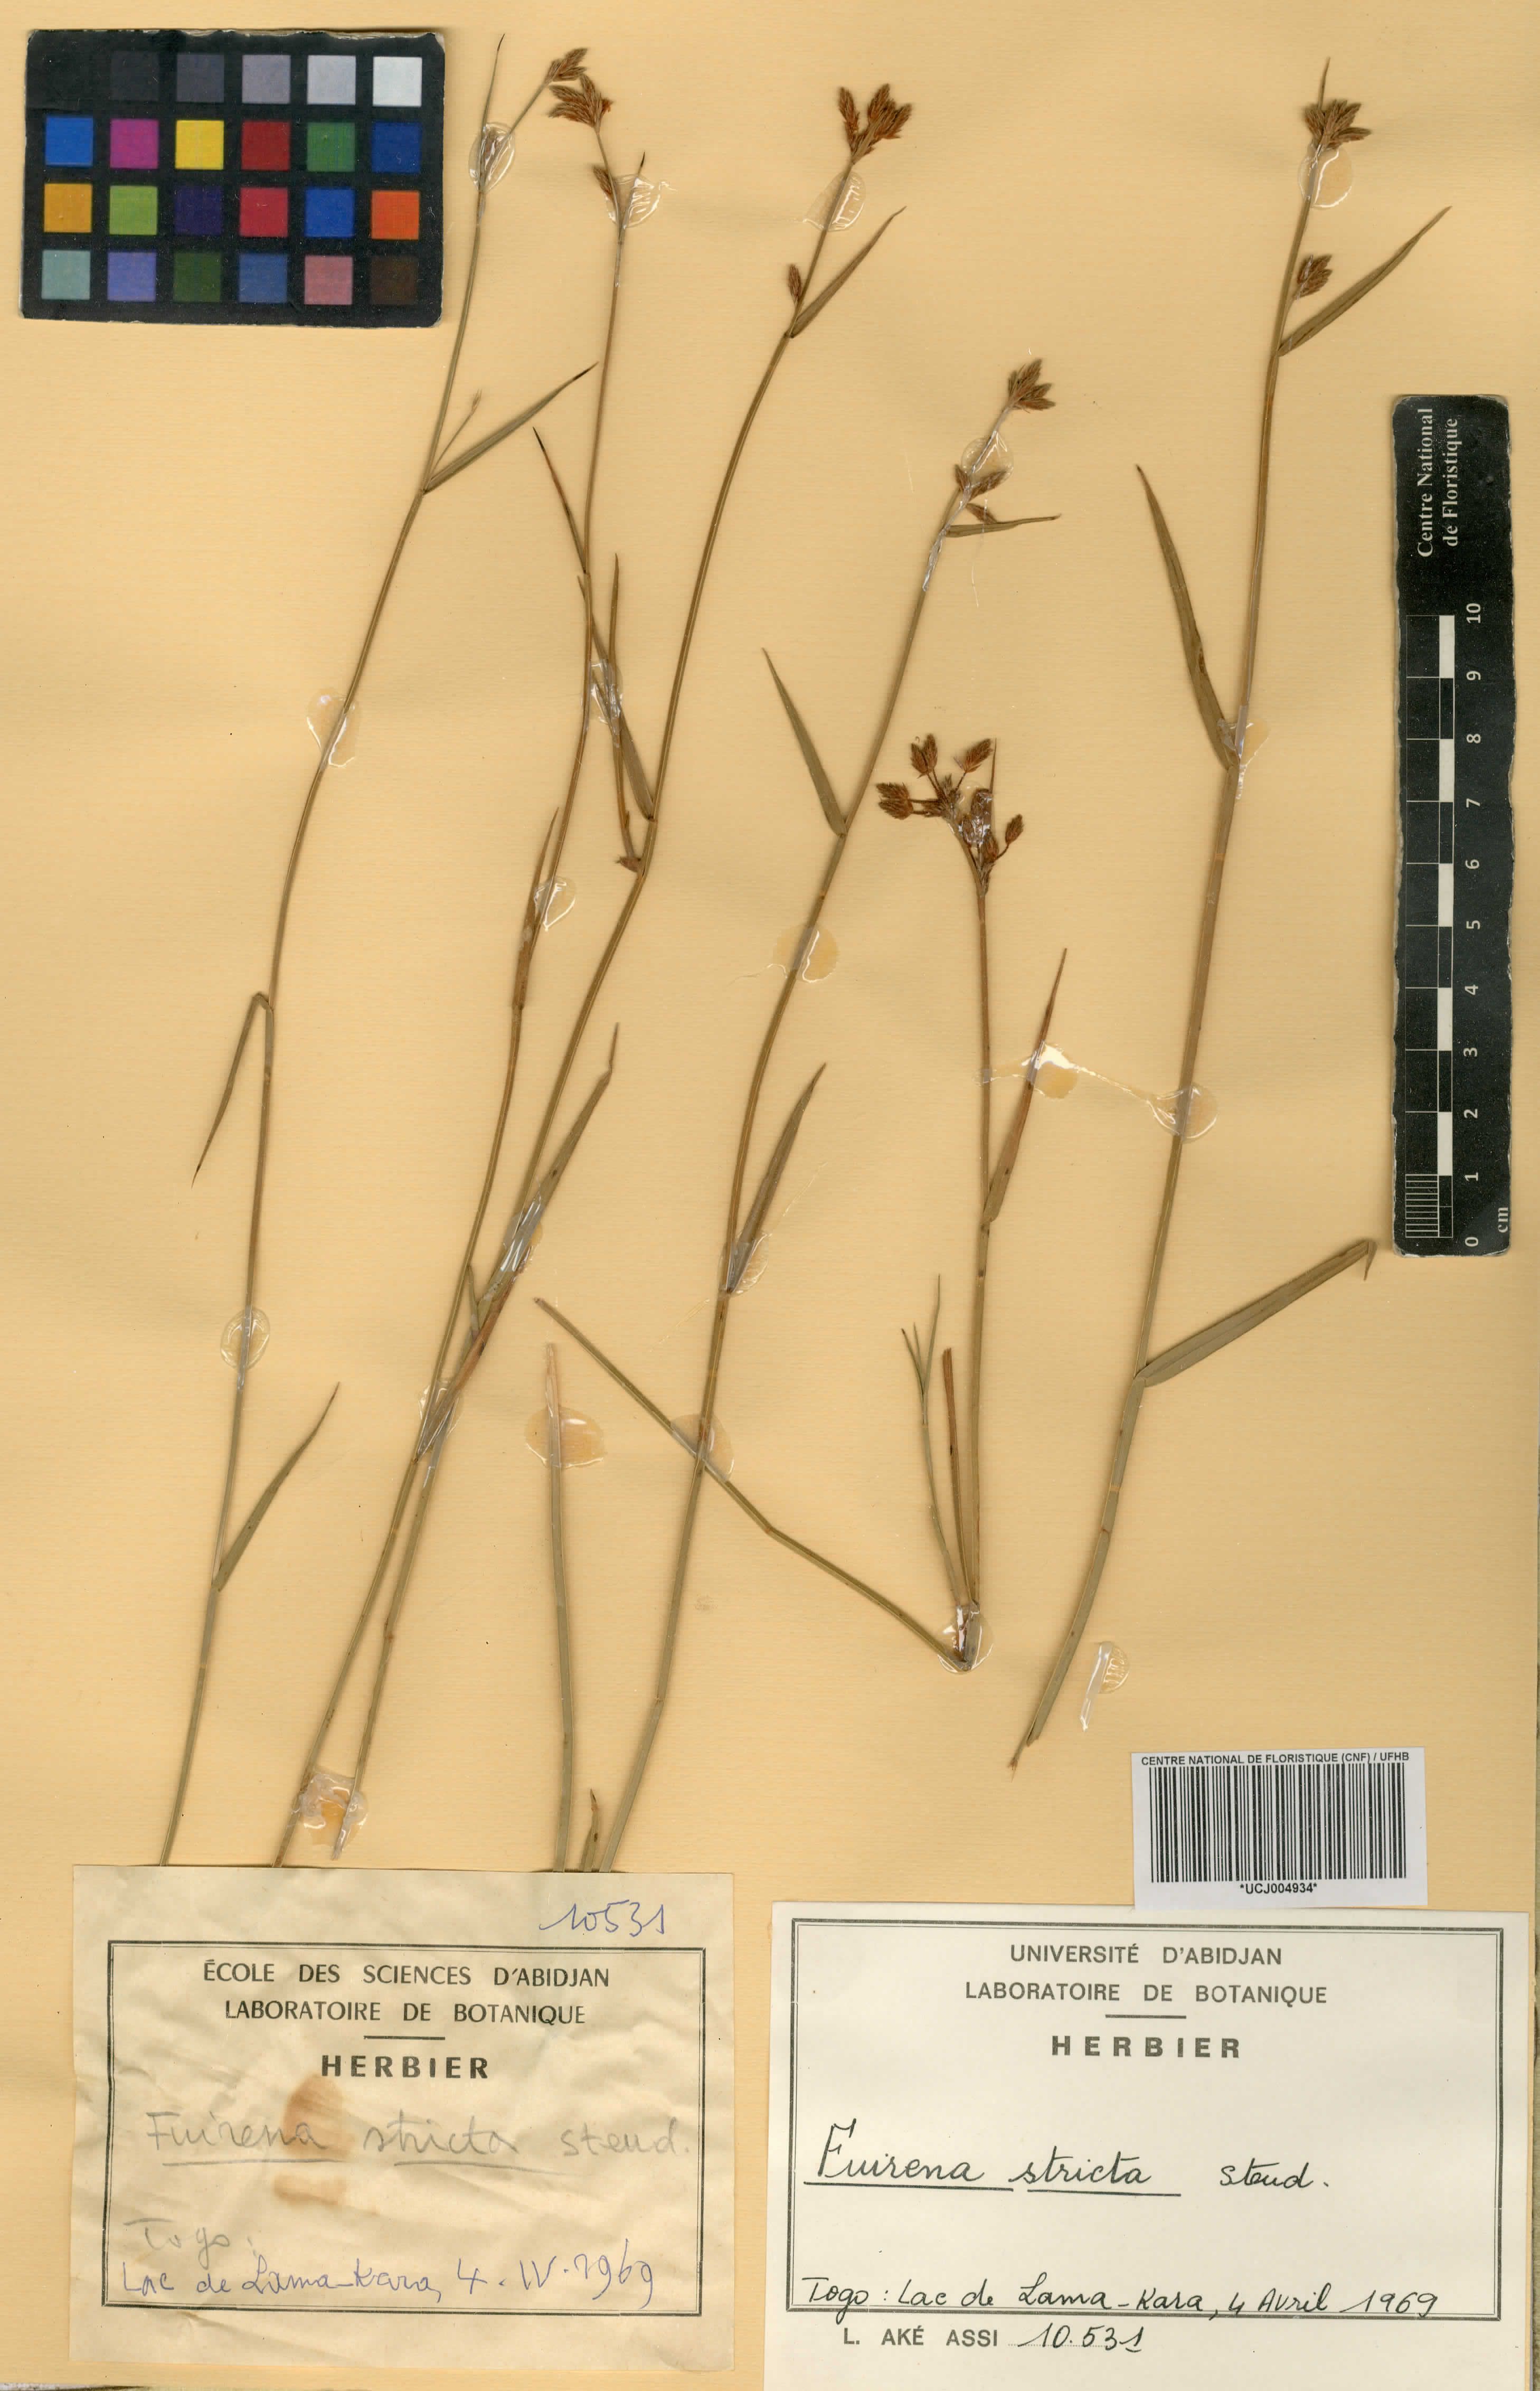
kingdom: Plantae
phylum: Tracheophyta
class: Liliopsida
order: Poales
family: Cyperaceae
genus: Fuirena
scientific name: Fuirena stricta
